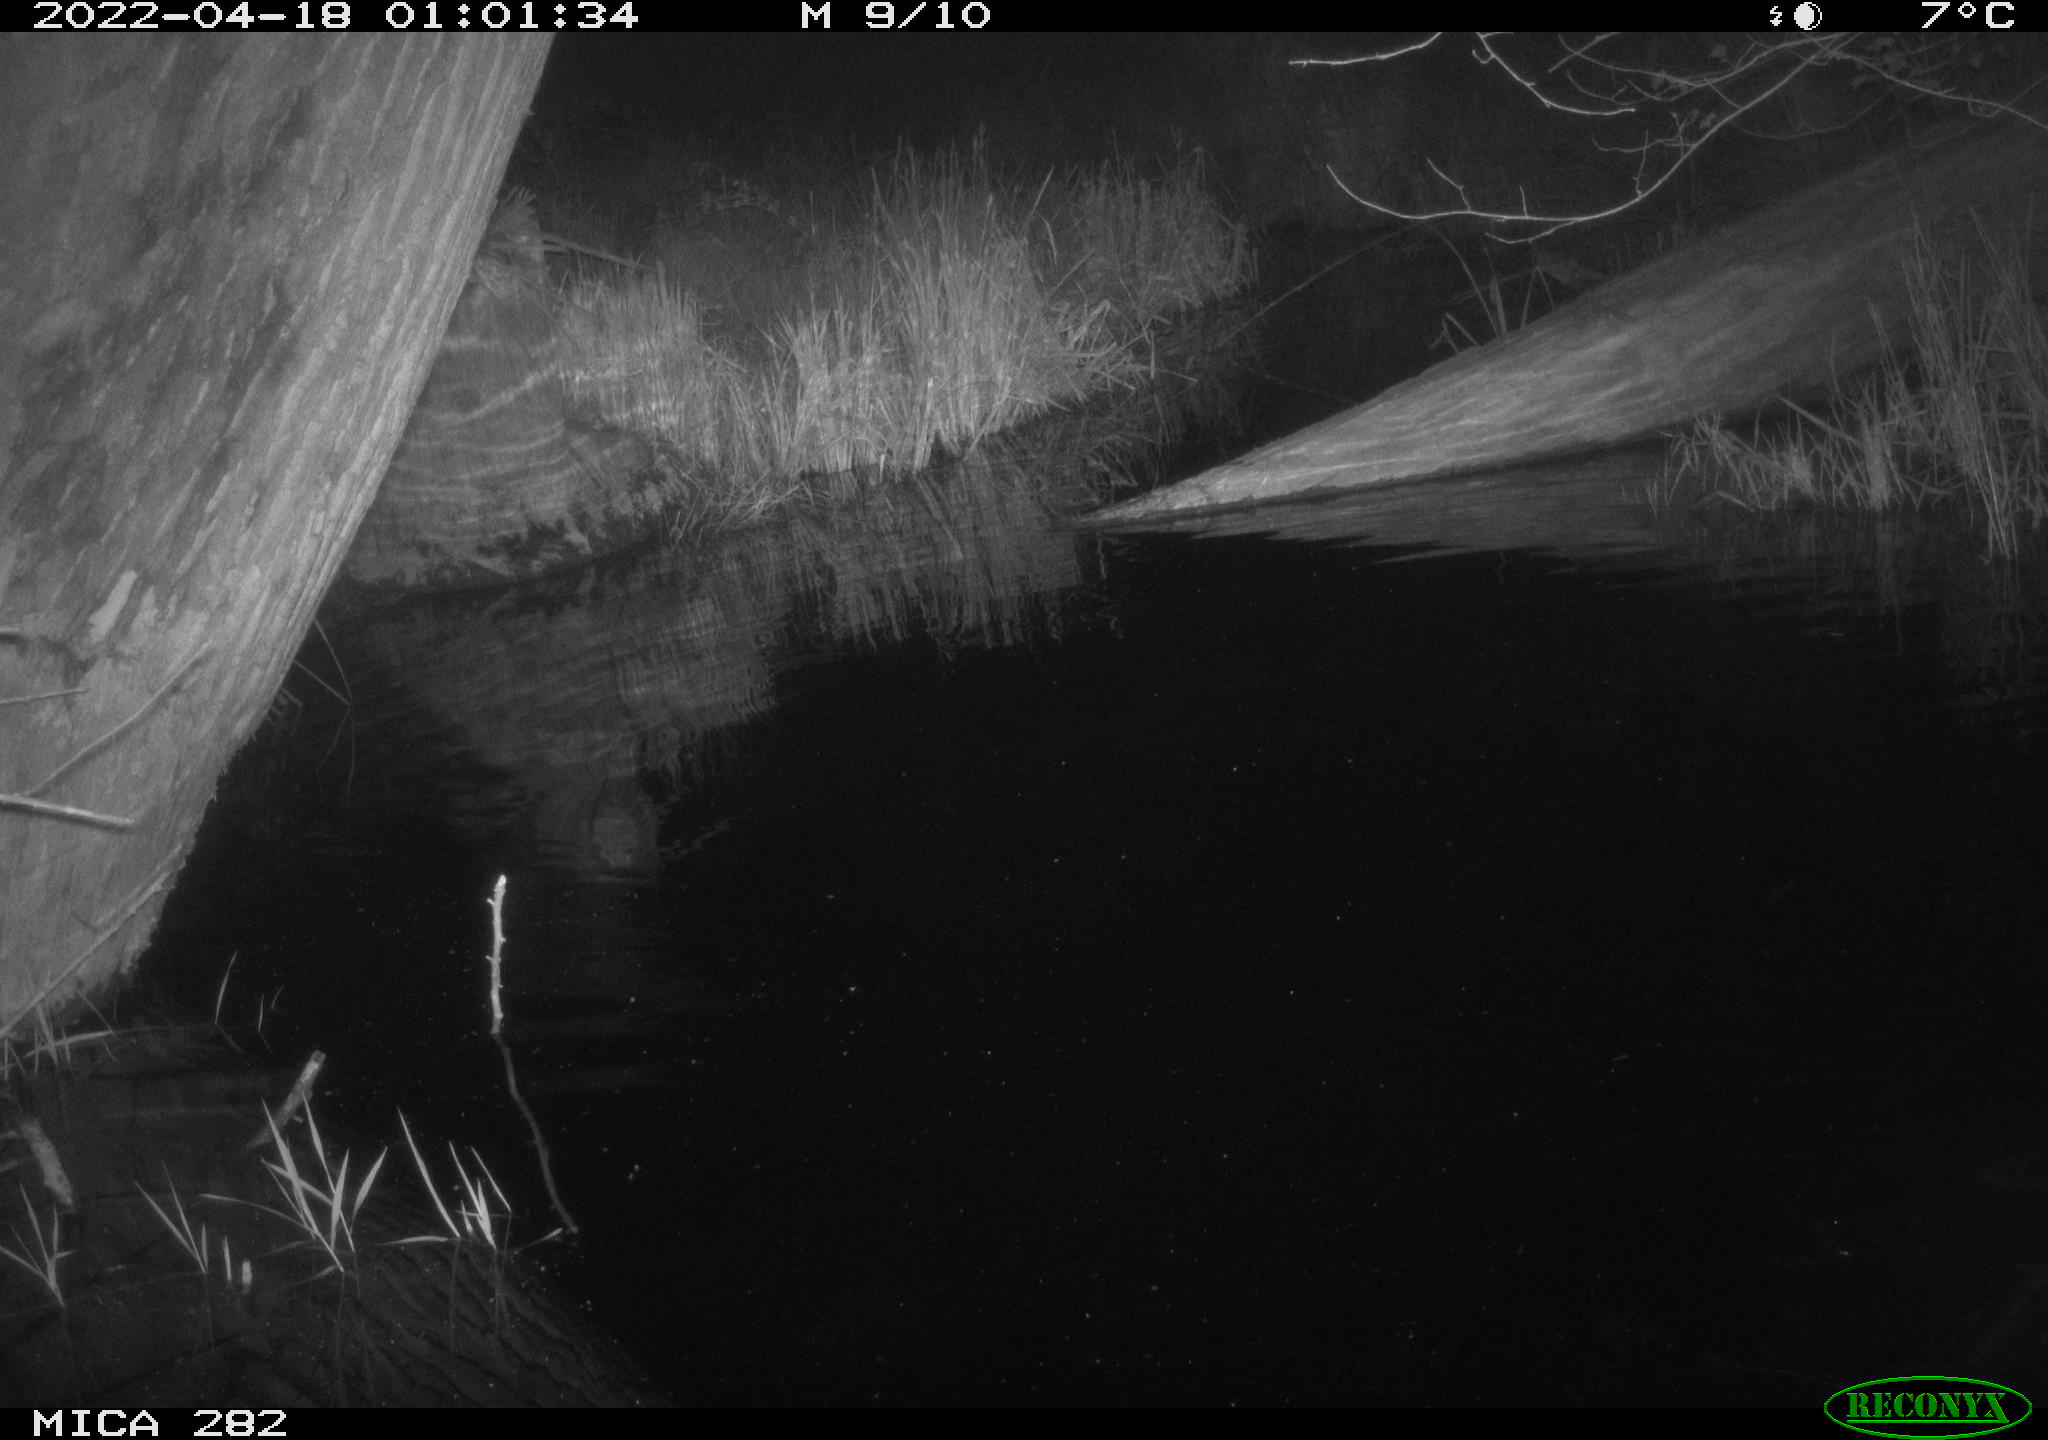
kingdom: Animalia
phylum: Chordata
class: Mammalia
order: Rodentia
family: Muridae
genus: Rattus
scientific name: Rattus norvegicus
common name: Brown rat
